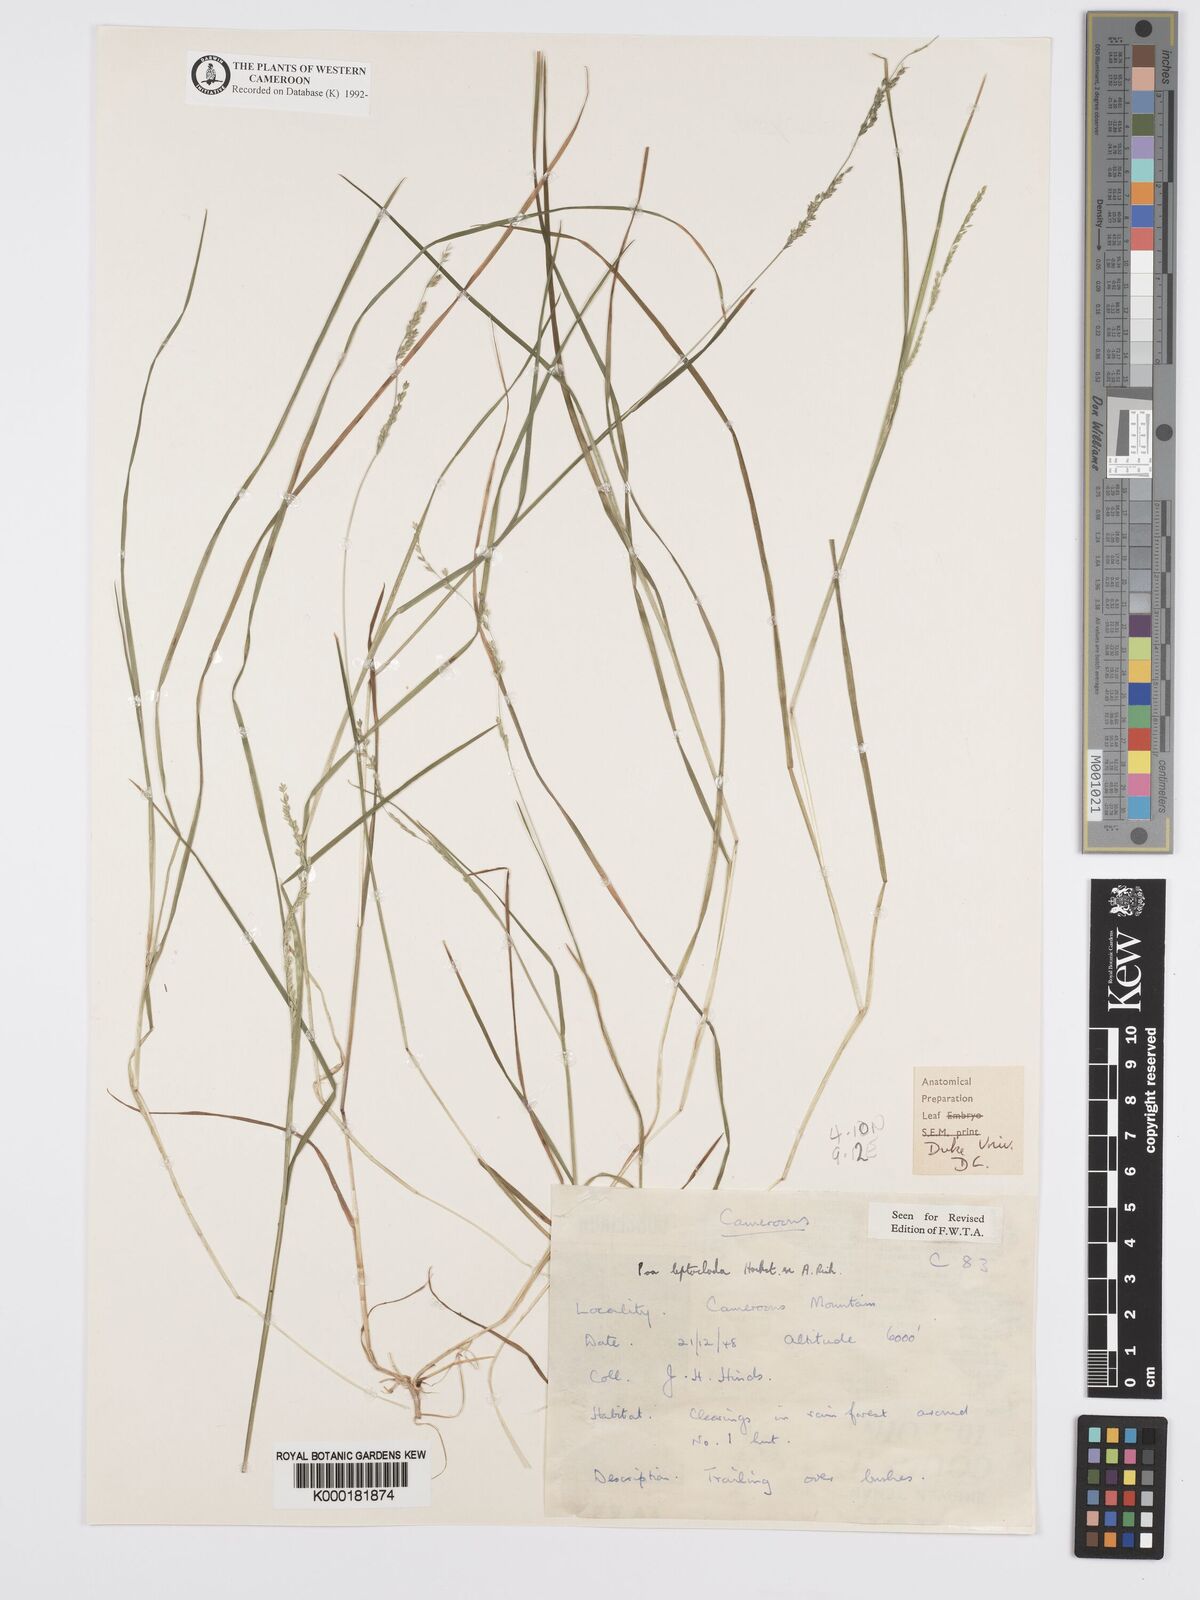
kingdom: Plantae
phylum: Tracheophyta
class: Liliopsida
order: Poales
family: Poaceae
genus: Poa
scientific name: Poa leptoclada
